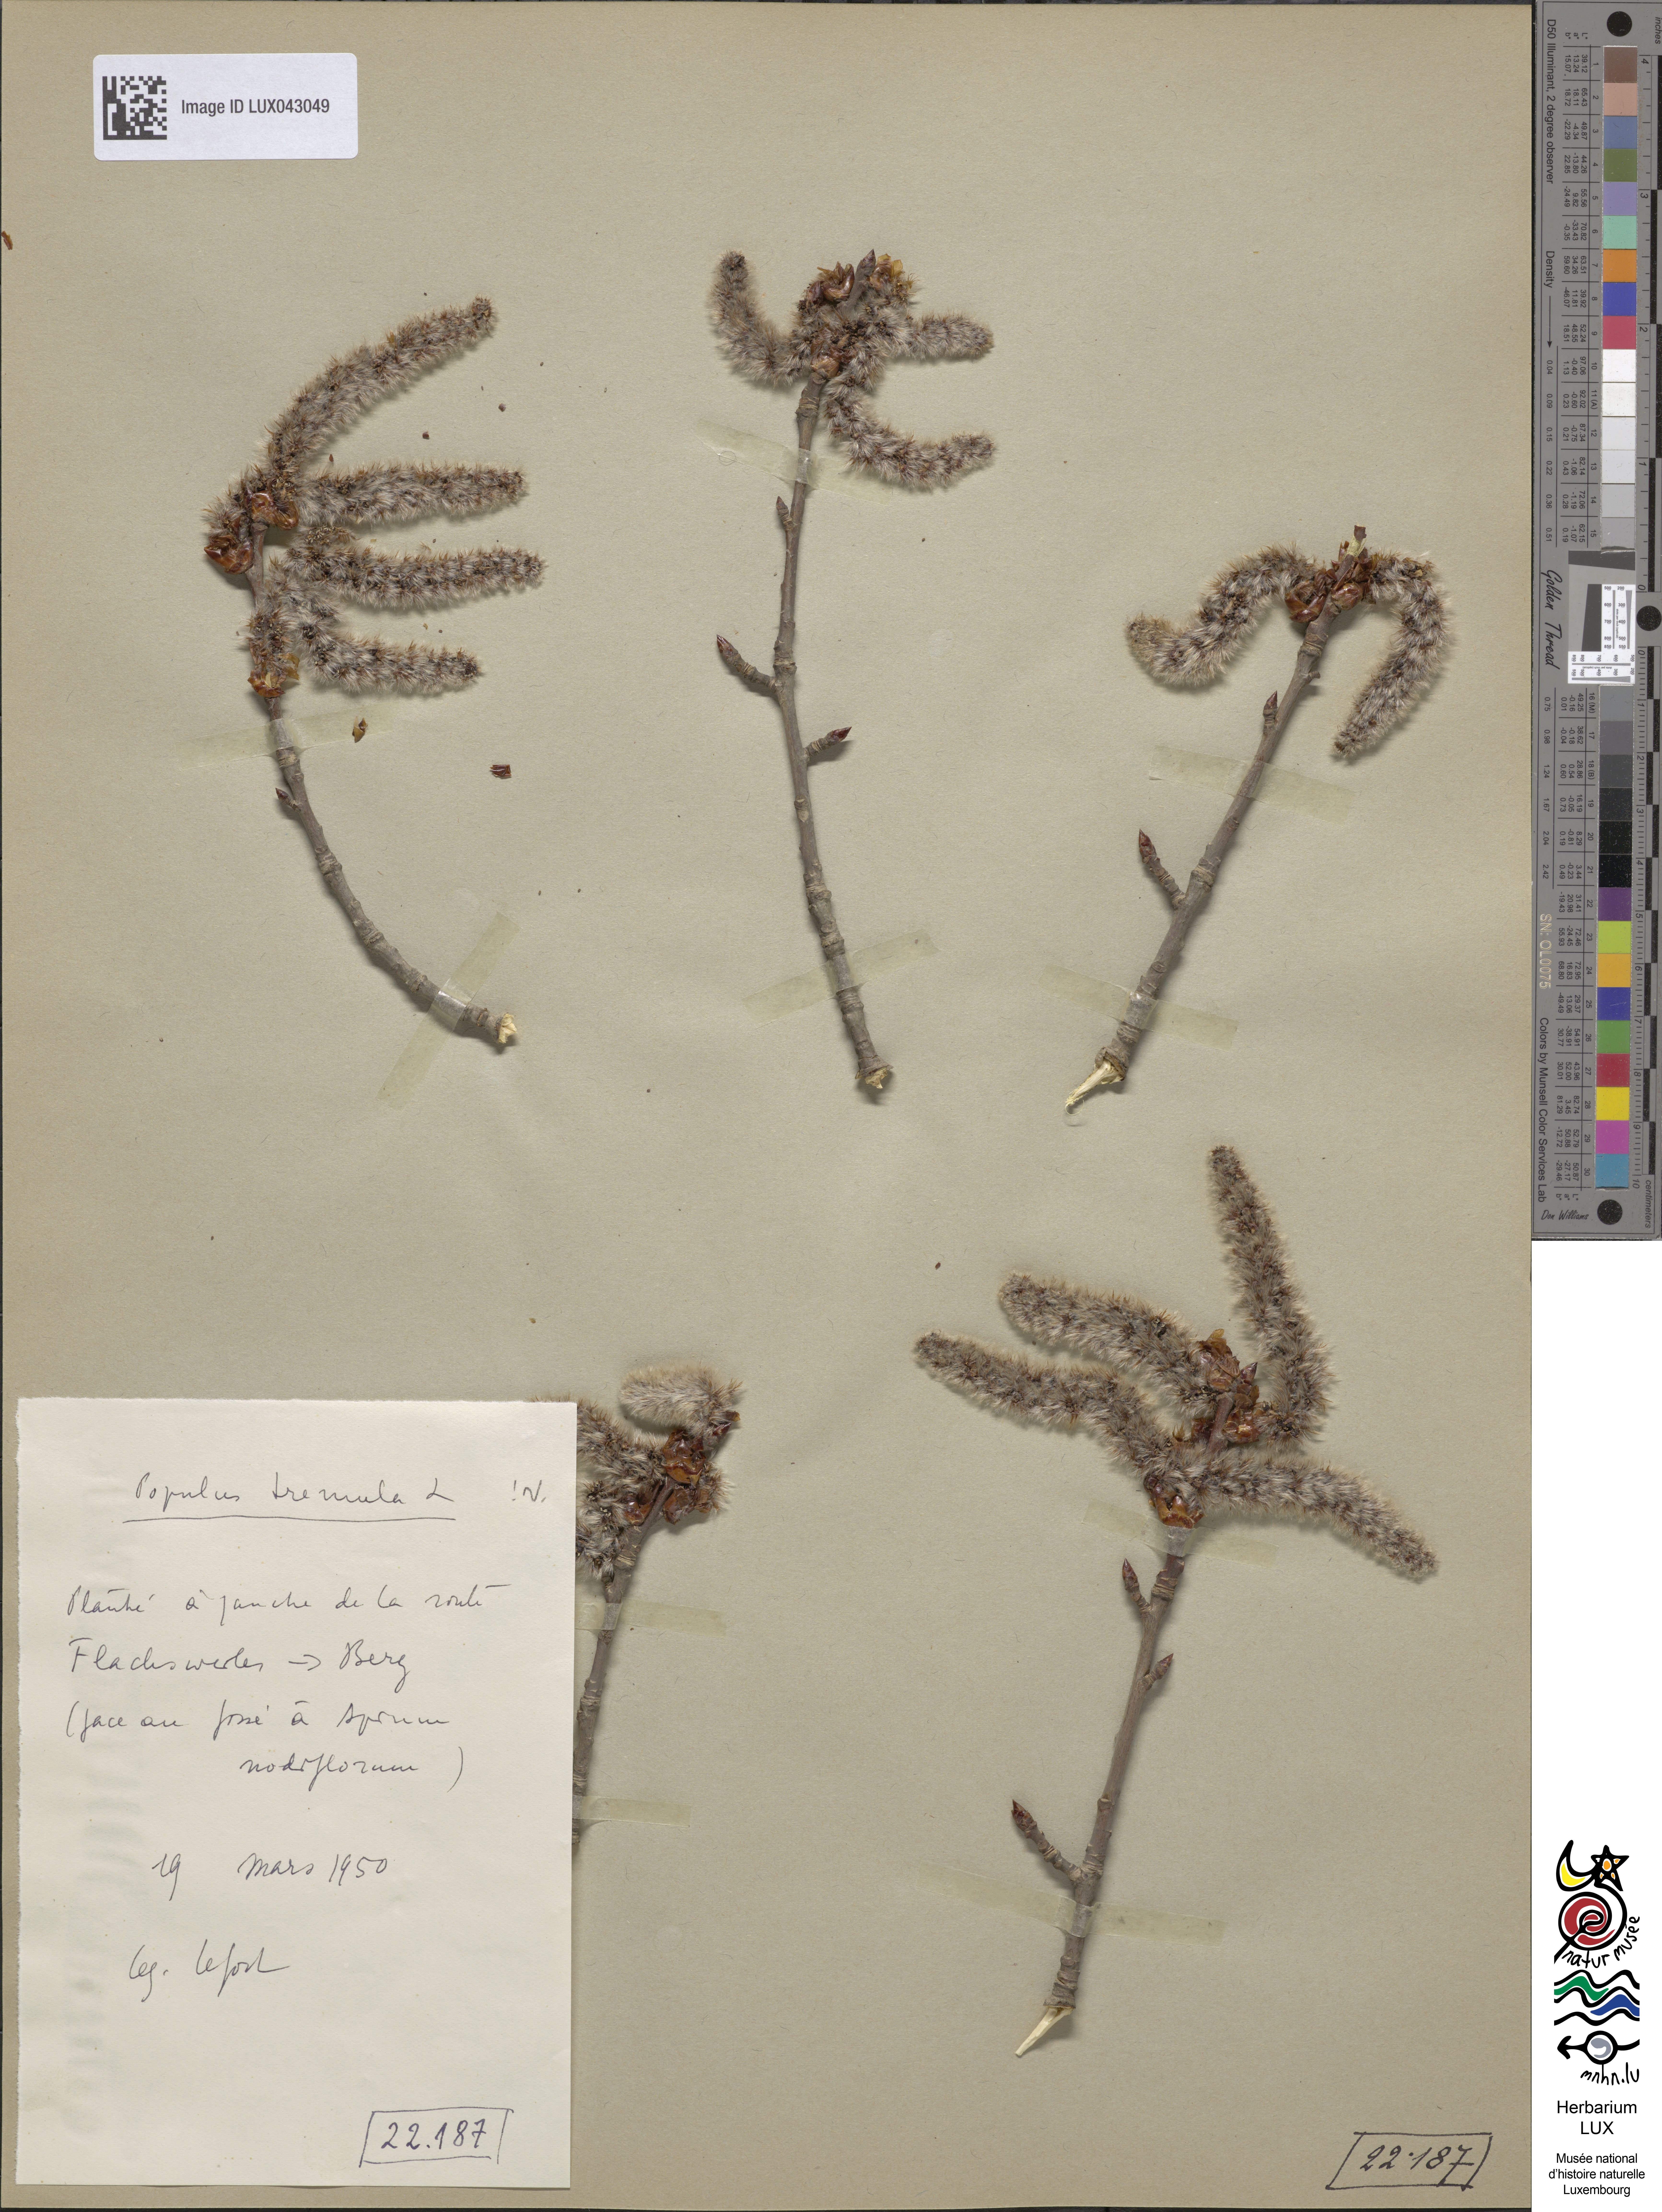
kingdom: Plantae
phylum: Tracheophyta
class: Magnoliopsida
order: Malpighiales
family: Salicaceae
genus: Populus
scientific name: Populus tremula
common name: European aspen
